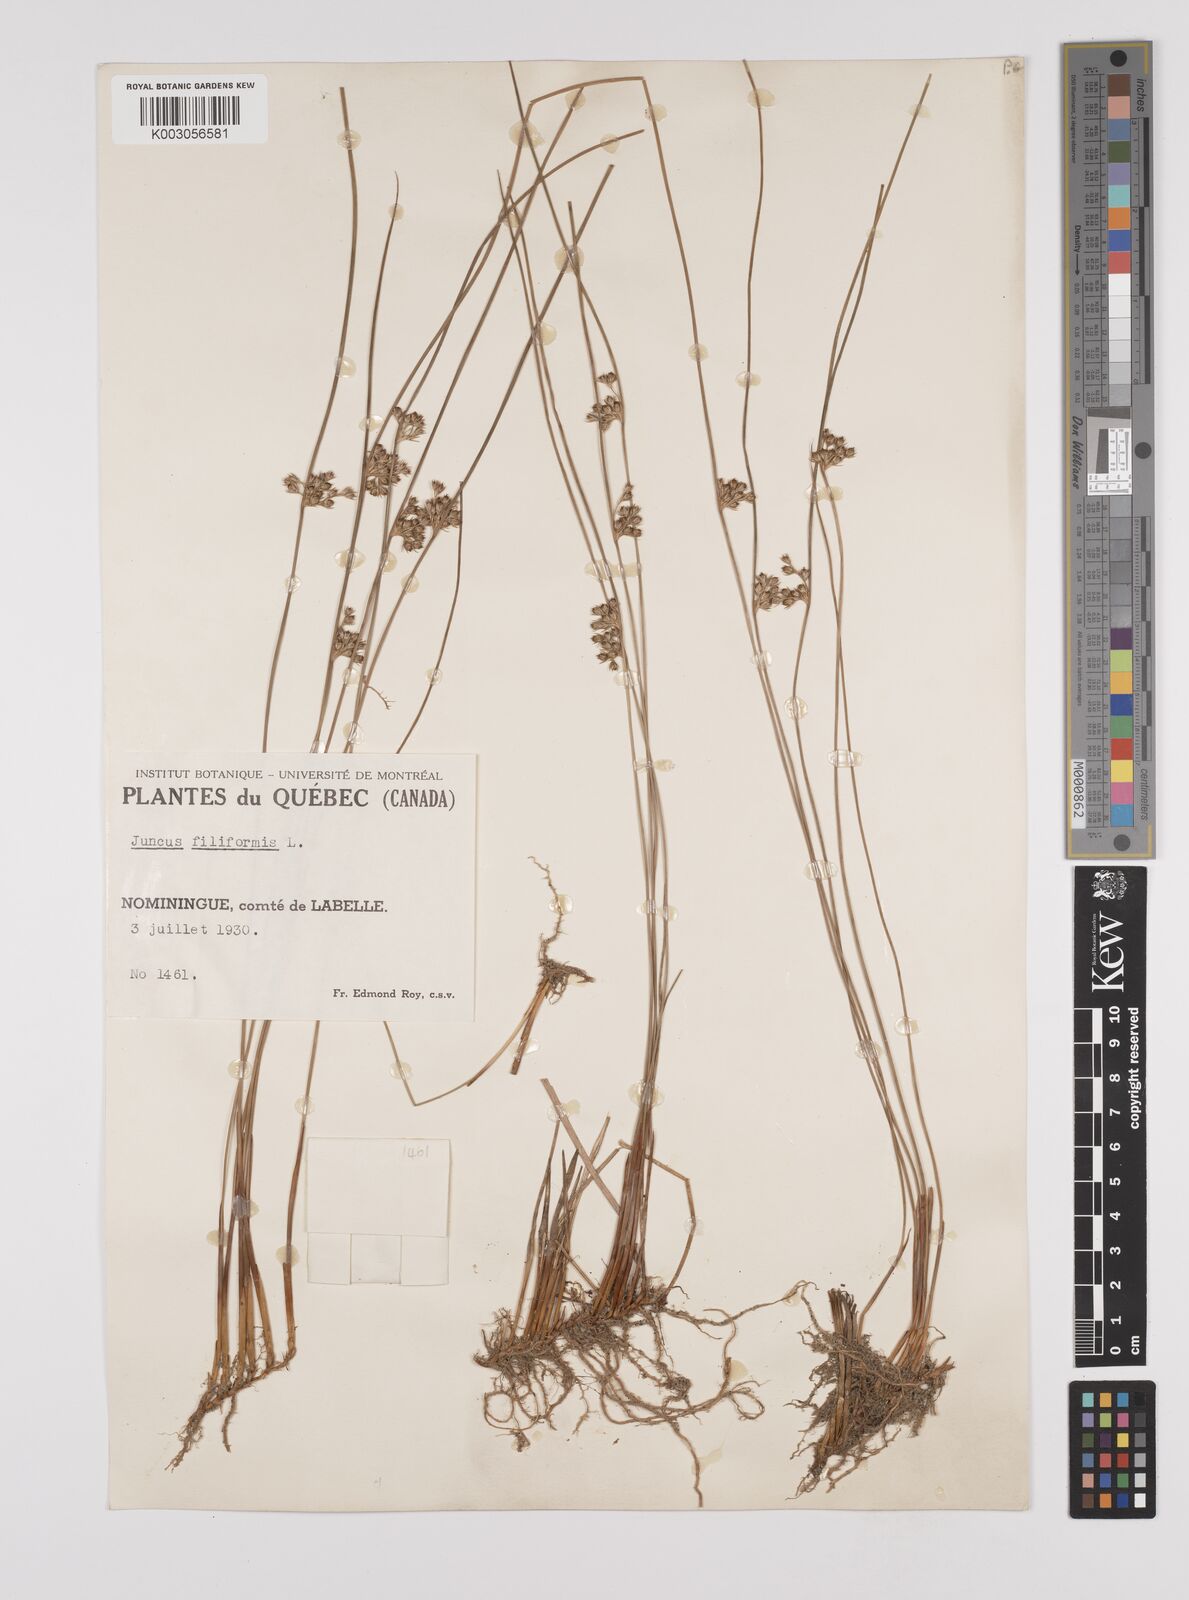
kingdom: Plantae
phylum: Tracheophyta
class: Liliopsida
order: Poales
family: Juncaceae
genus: Juncus
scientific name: Juncus filiformis
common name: Thread rush
